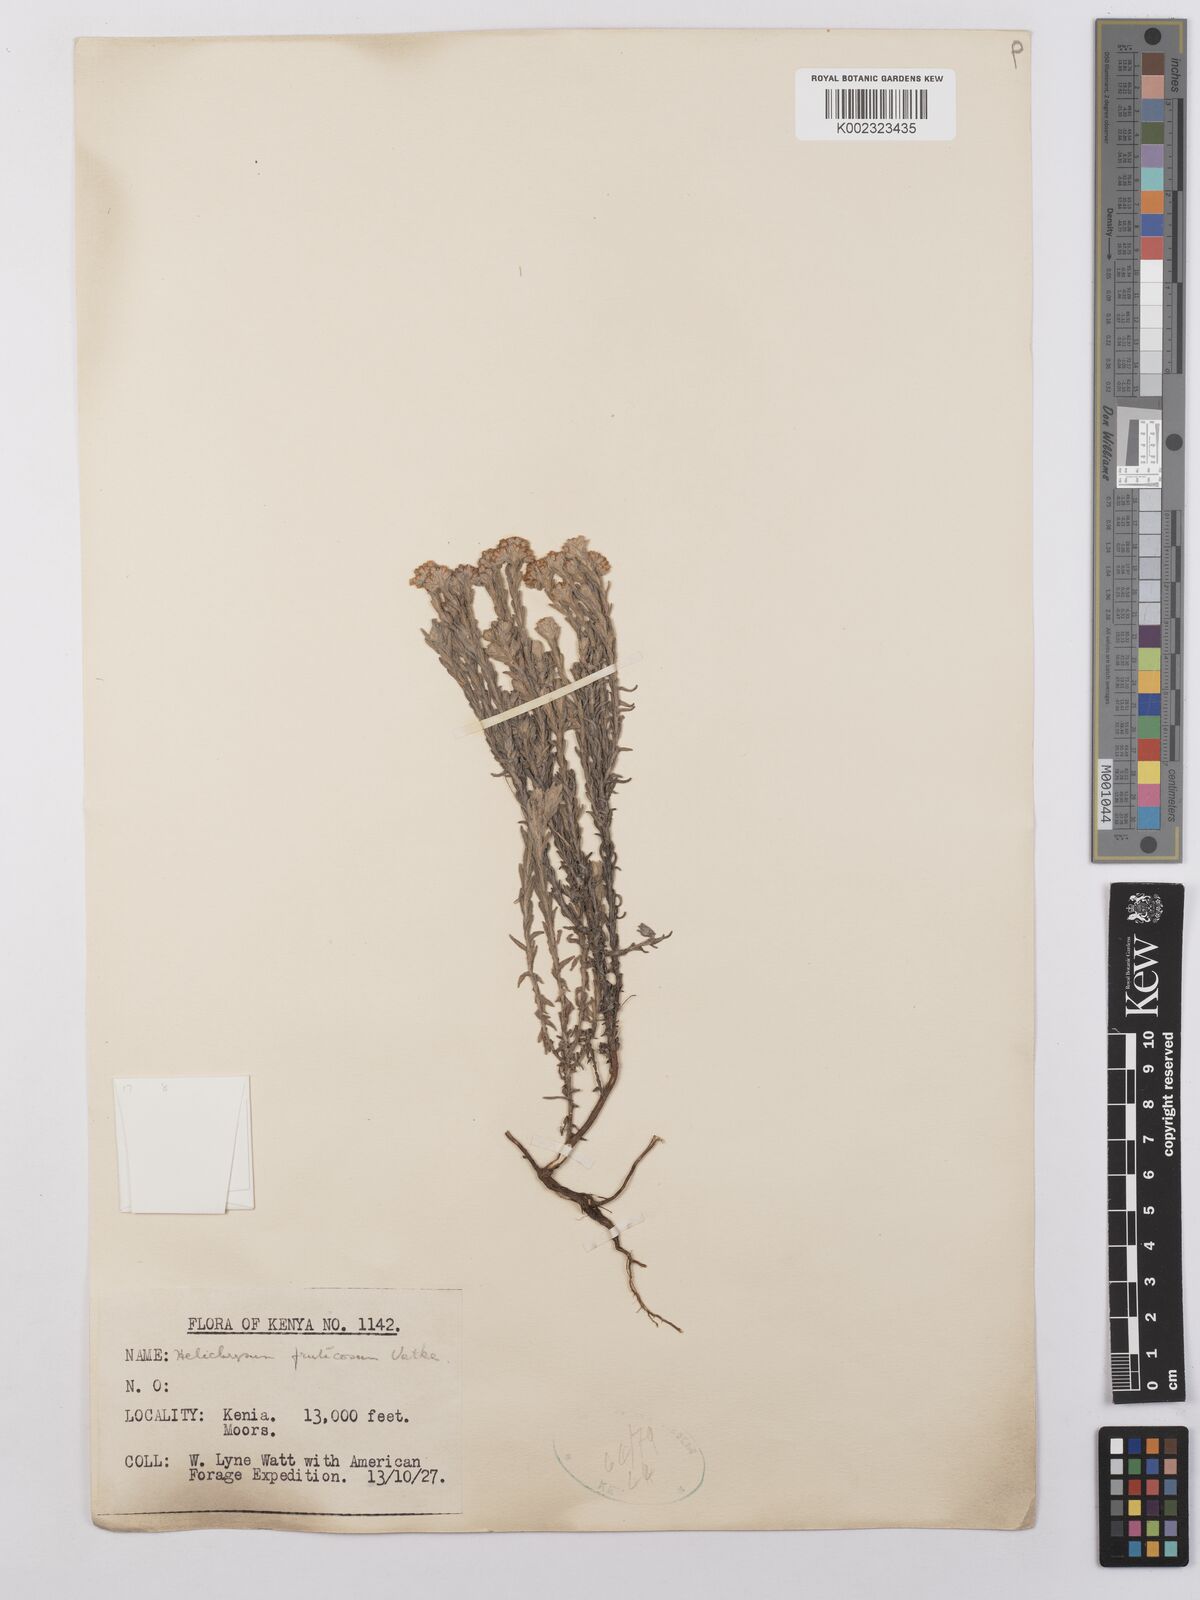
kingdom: Plantae
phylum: Tracheophyta
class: Magnoliopsida
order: Asterales
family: Asteraceae
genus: Helichrysum
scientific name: Helichrysum forskahlii
